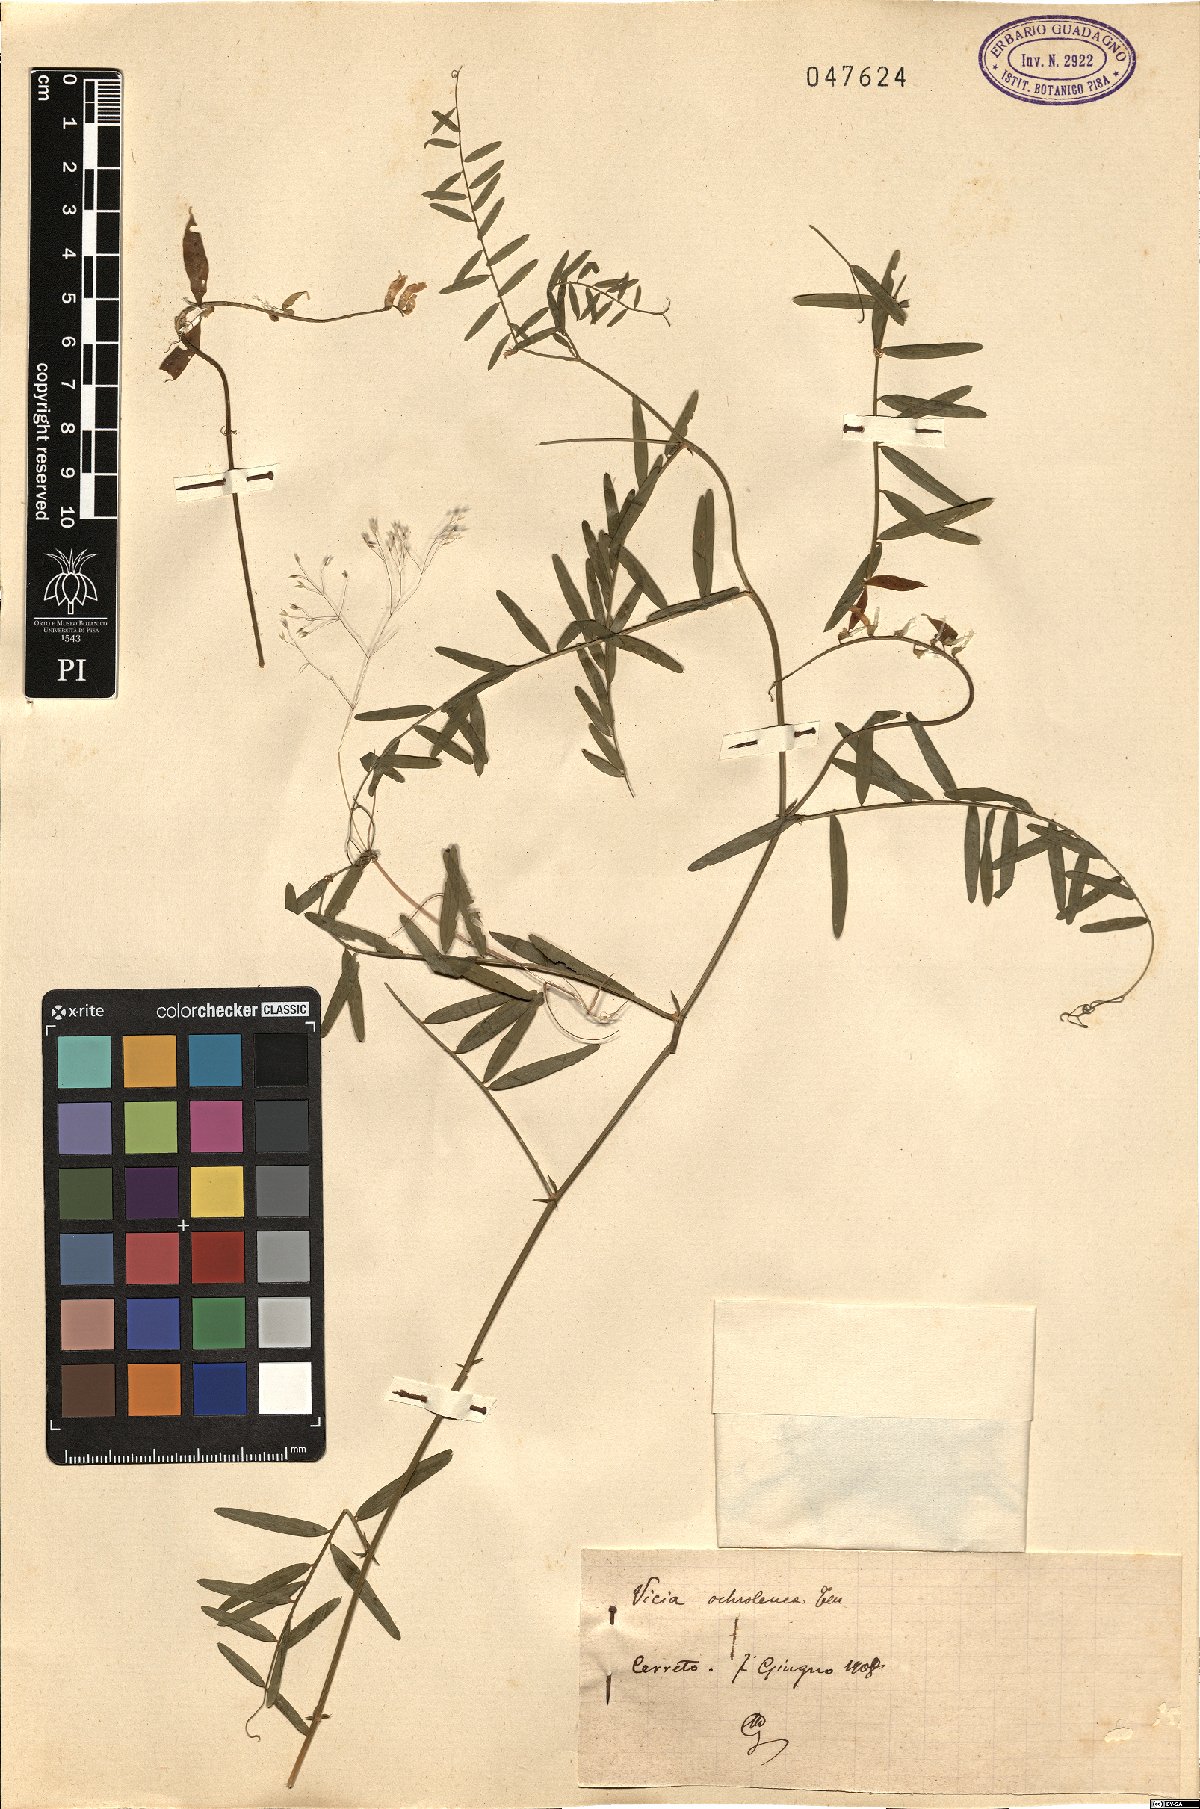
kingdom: Plantae
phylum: Tracheophyta
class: Magnoliopsida
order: Fabales
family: Fabaceae
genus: Vicia
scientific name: Vicia ochroleuca
